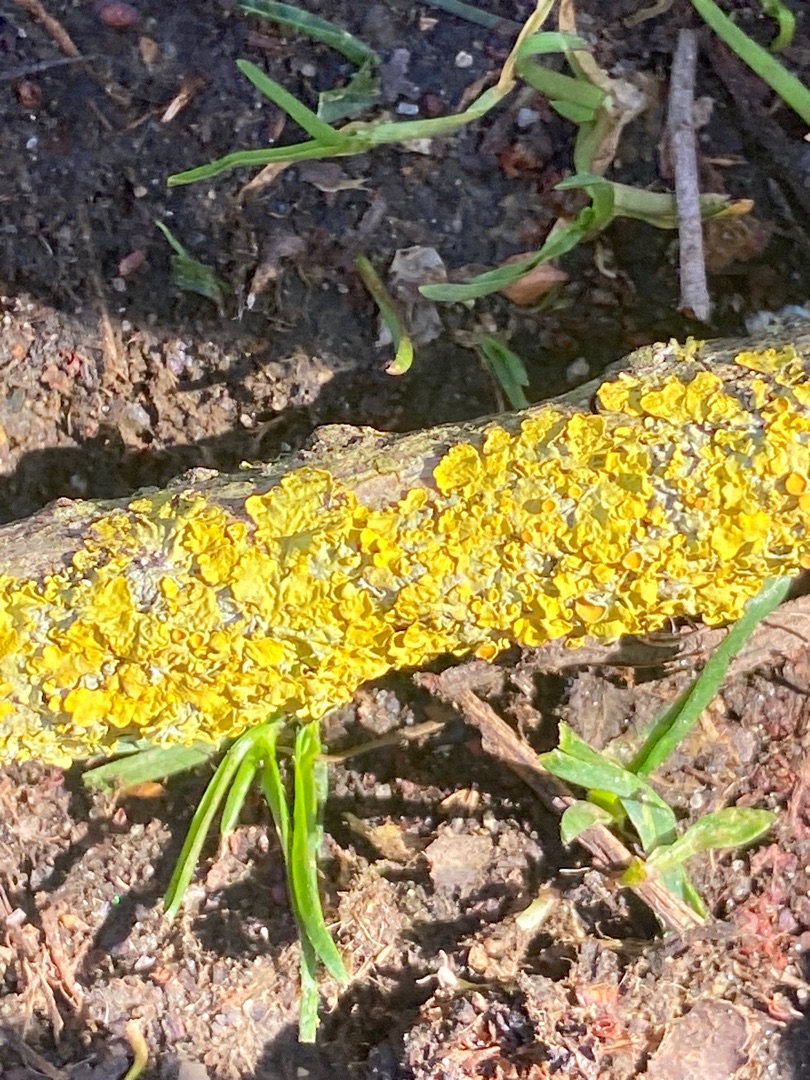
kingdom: Fungi
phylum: Ascomycota
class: Lecanoromycetes
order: Teloschistales
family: Teloschistaceae
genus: Xanthoria
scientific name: Xanthoria parietina
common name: Almindelig væggelav
